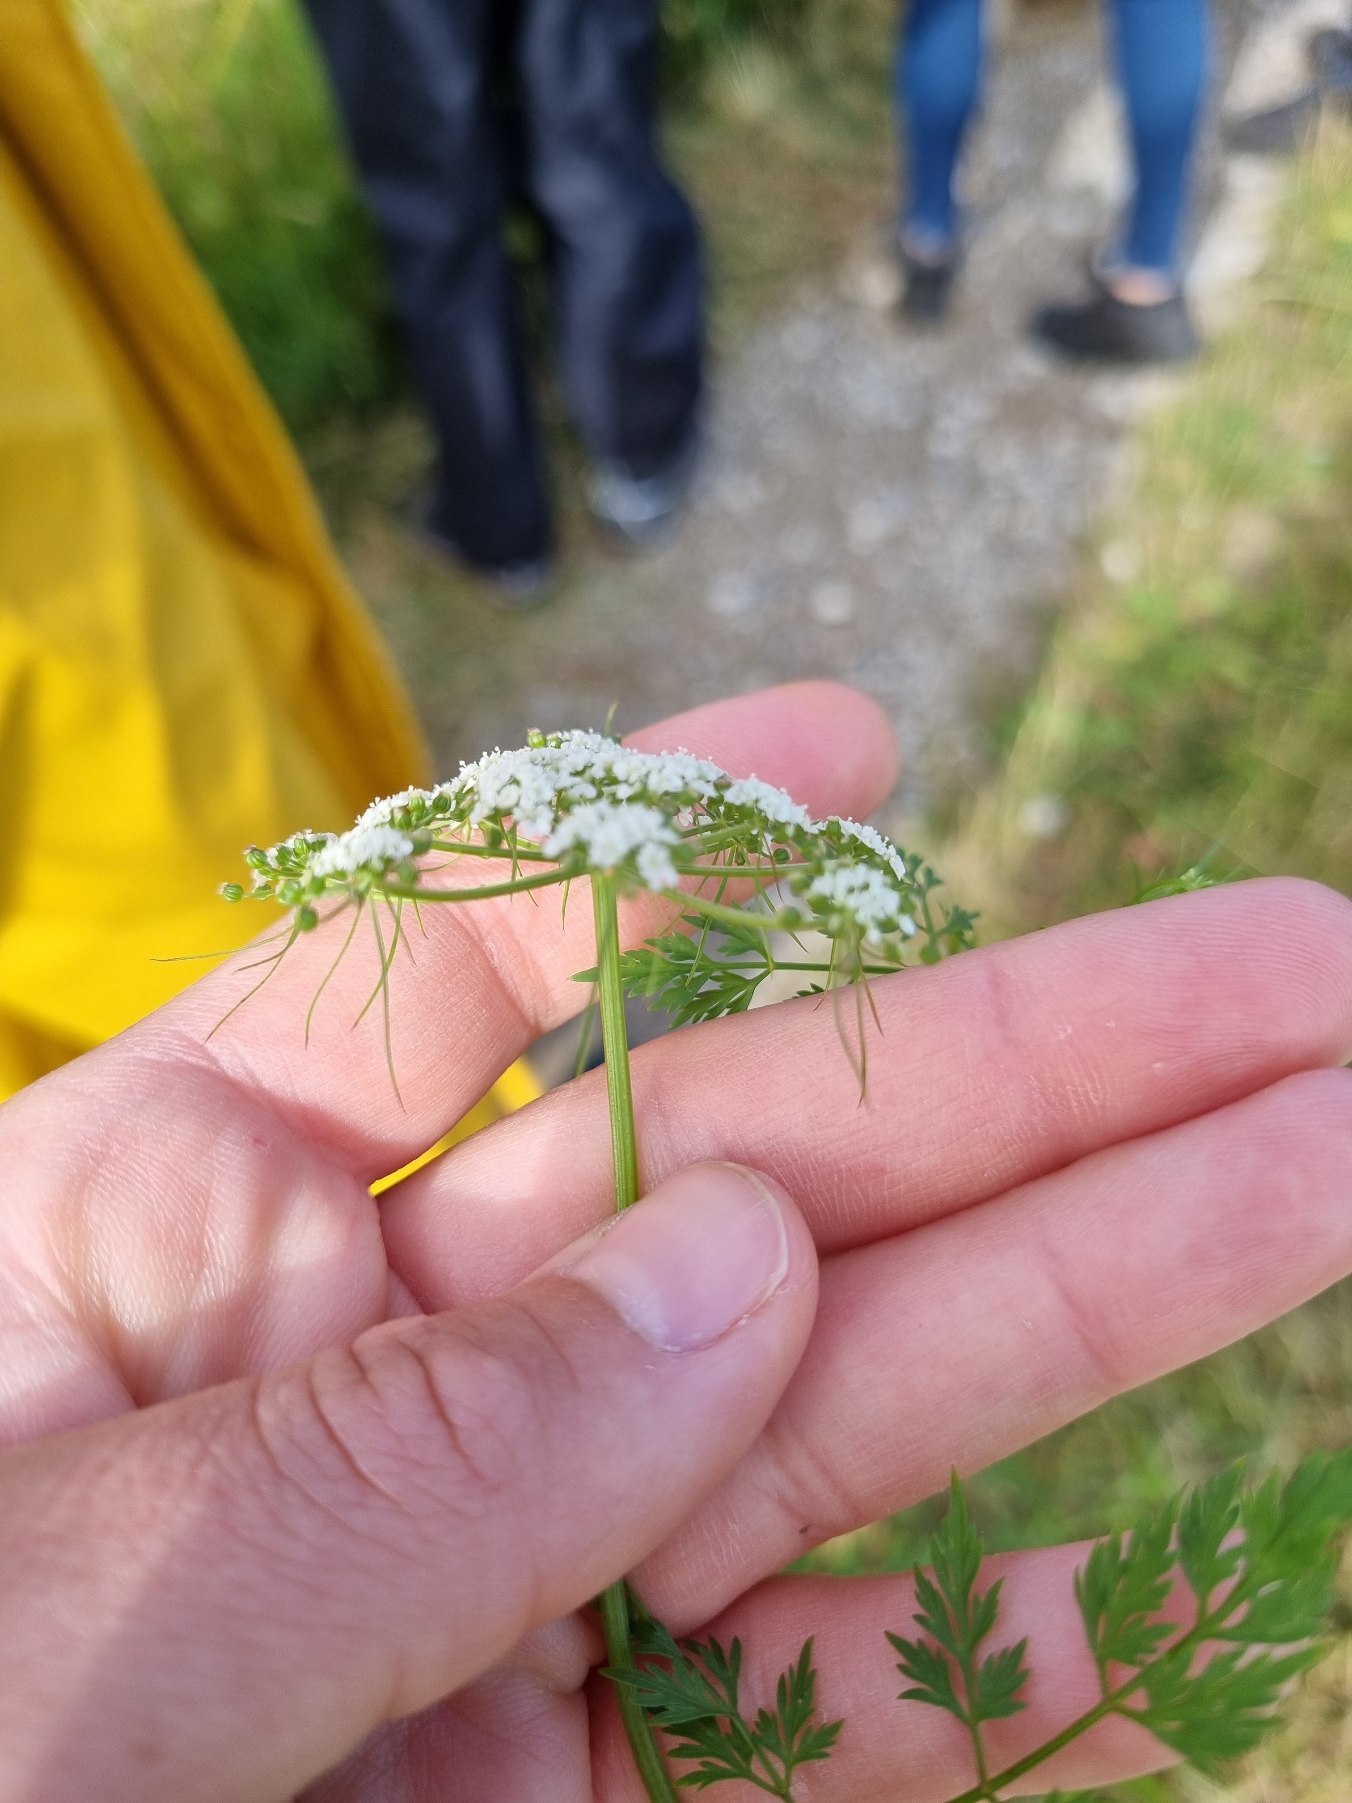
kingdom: Plantae
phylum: Tracheophyta
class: Magnoliopsida
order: Apiales
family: Apiaceae
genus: Aethusa
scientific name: Aethusa cynapium
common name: Hundepersille
